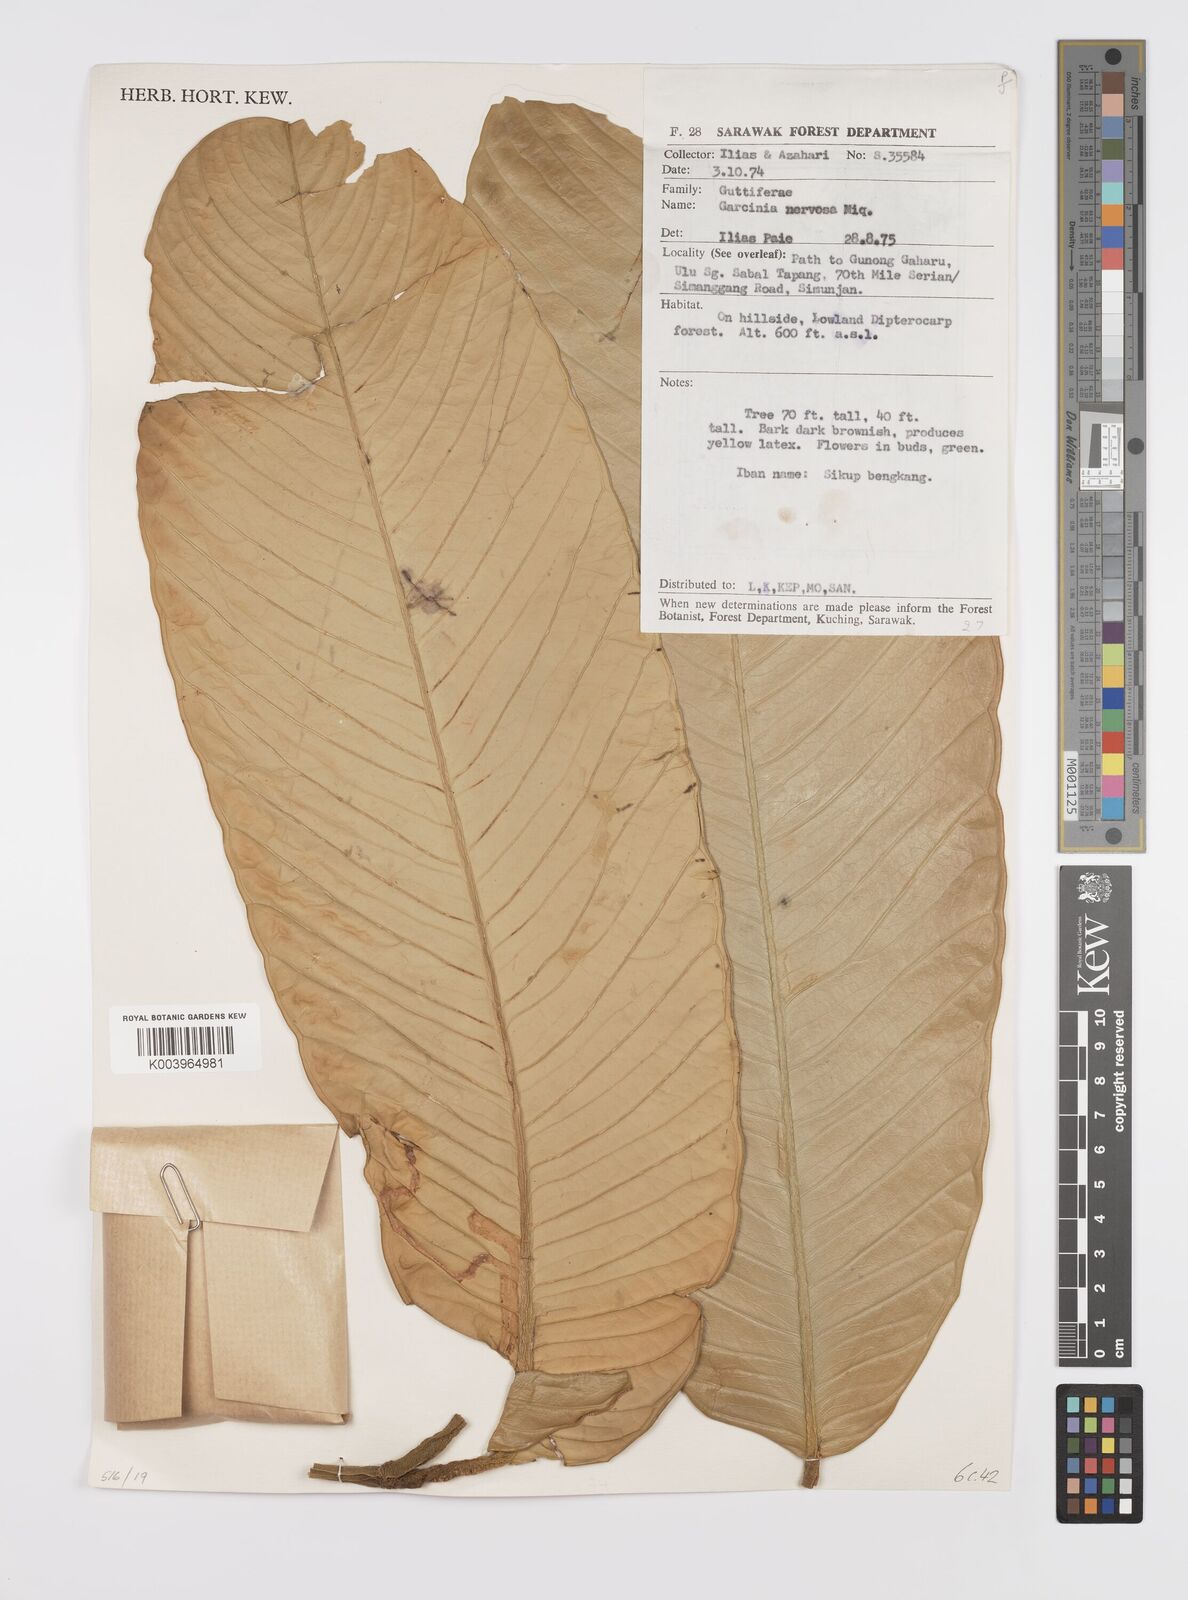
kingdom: Plantae
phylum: Tracheophyta
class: Magnoliopsida
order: Malpighiales
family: Clusiaceae
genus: Garcinia
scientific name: Garcinia nervosa
